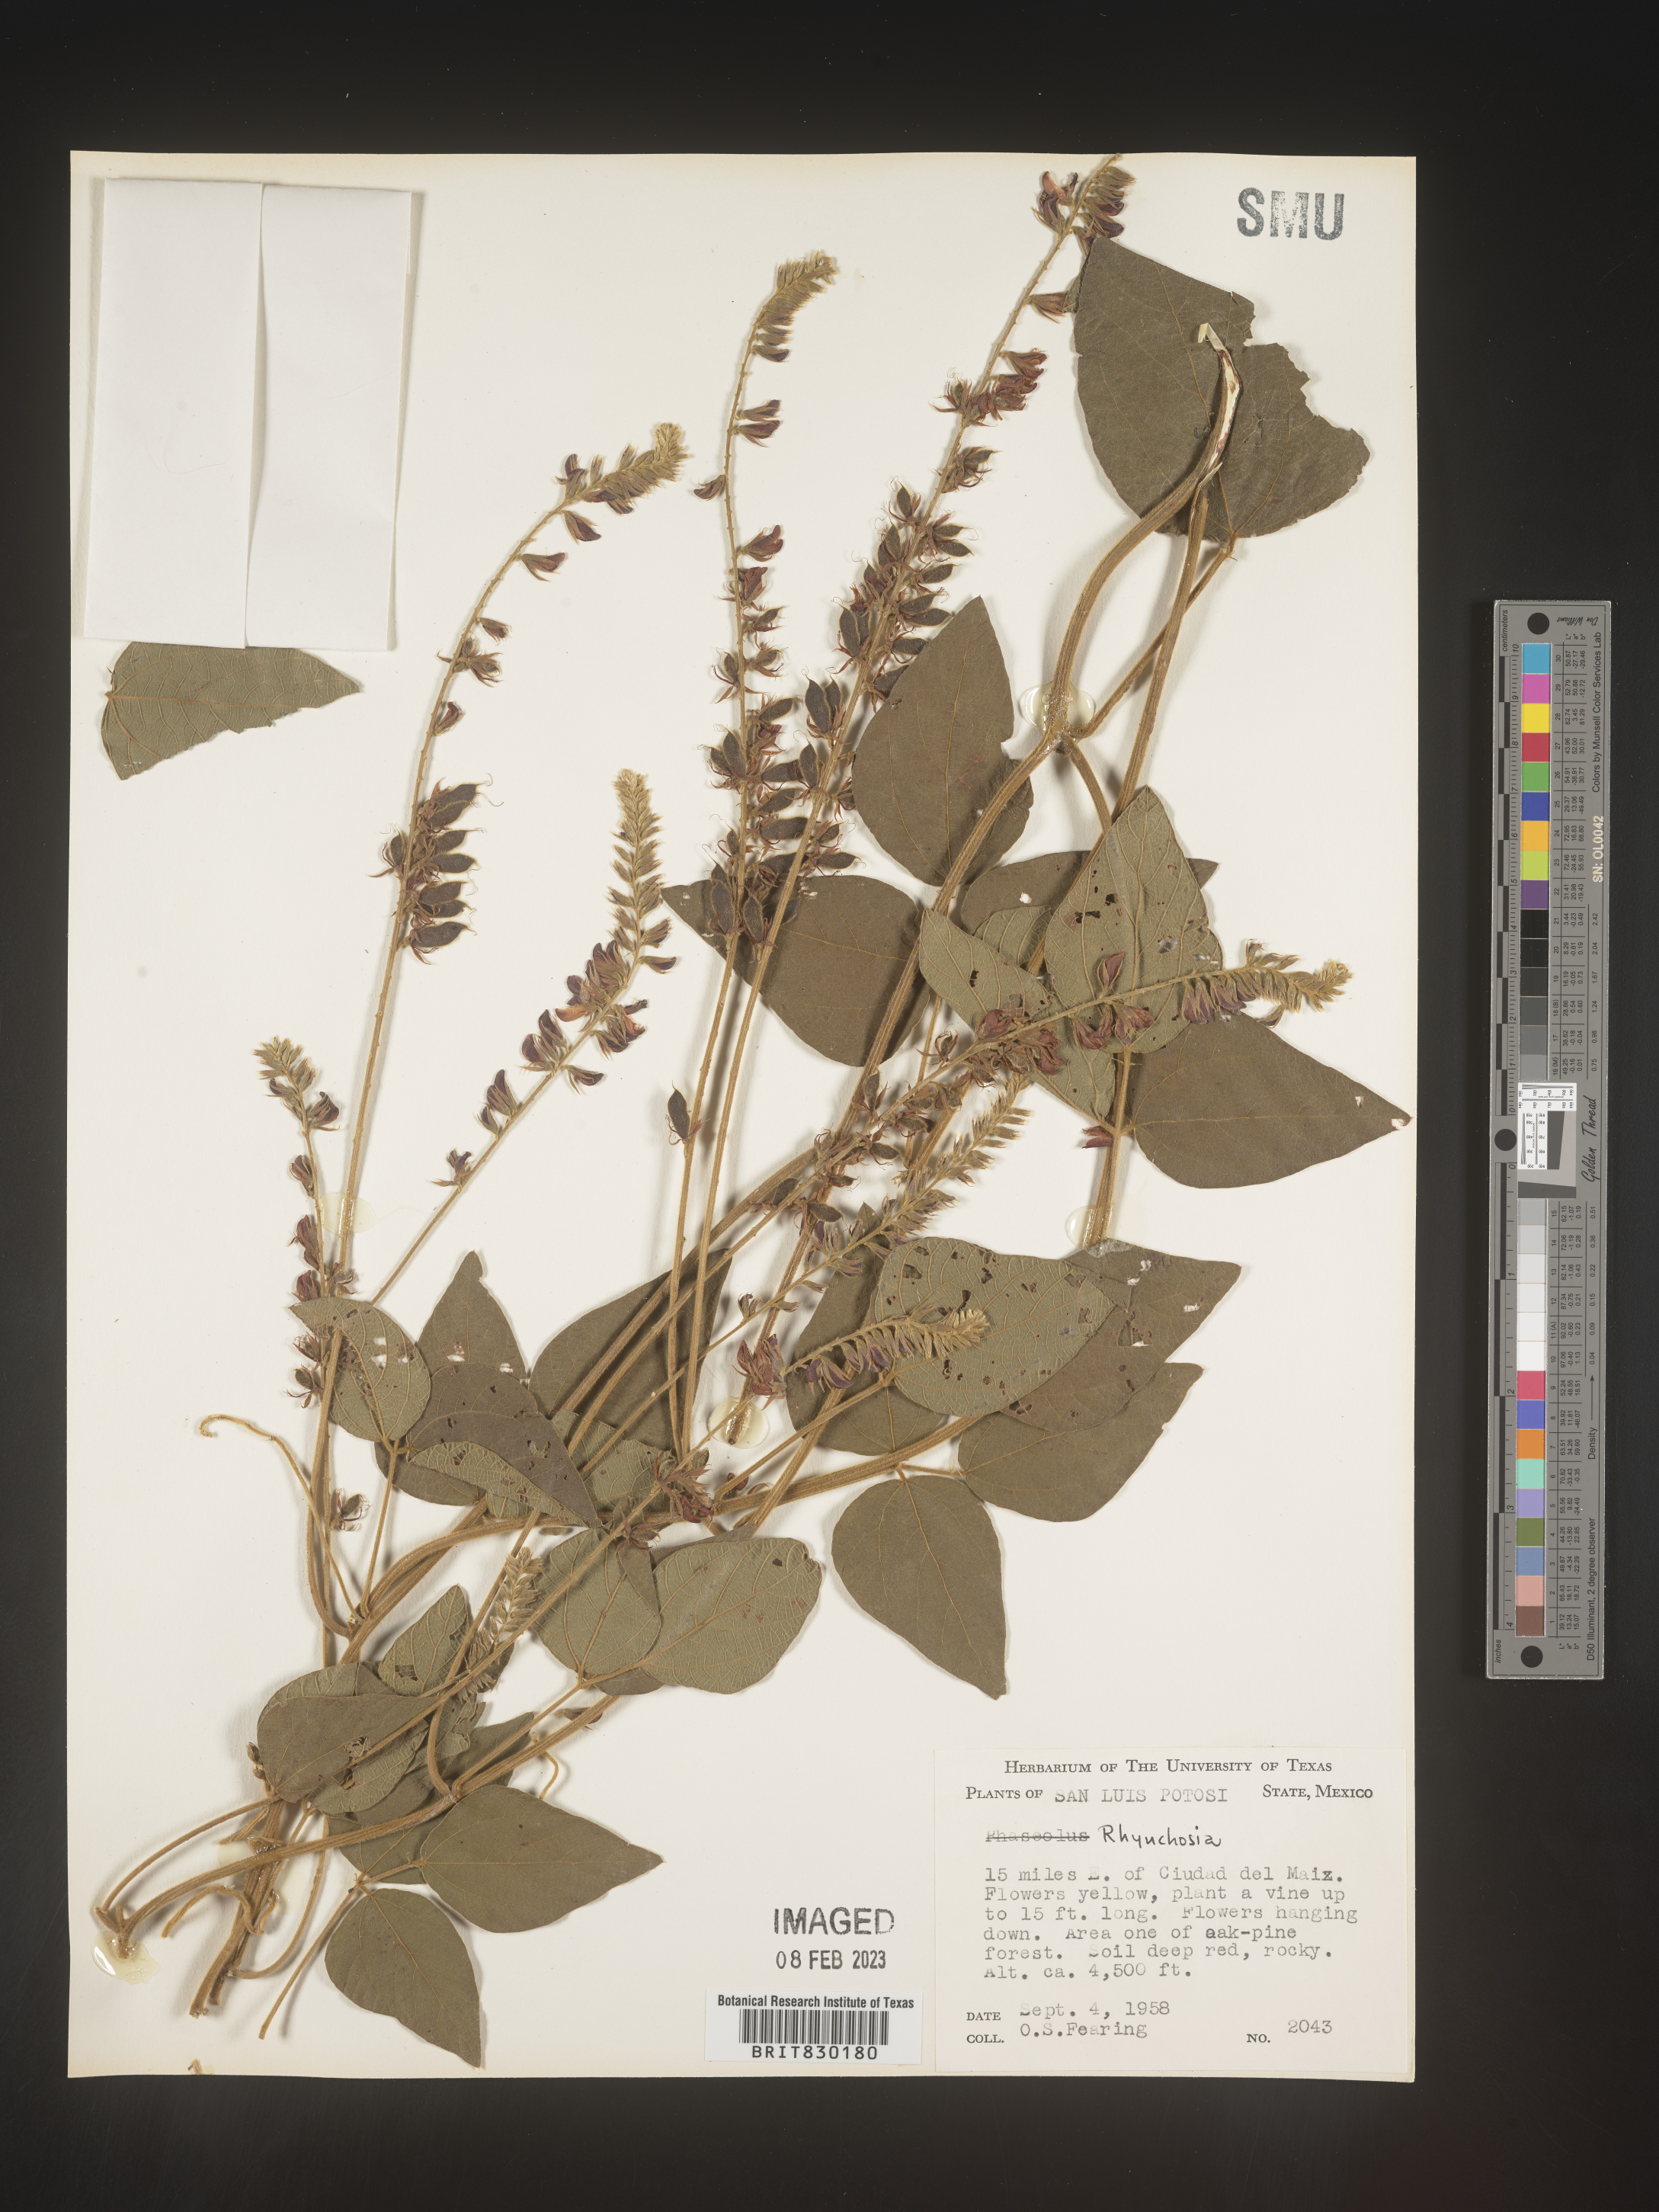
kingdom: Plantae
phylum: Tracheophyta
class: Magnoliopsida
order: Fabales
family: Fabaceae
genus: Rhynchosia
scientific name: Rhynchosia
